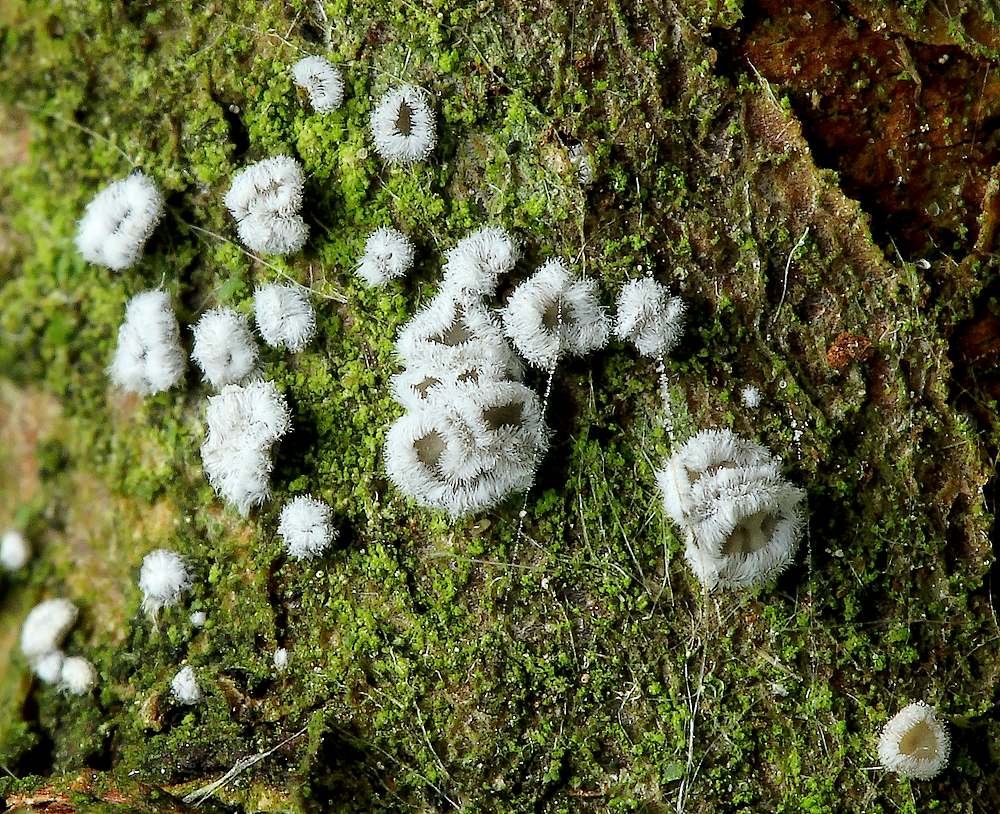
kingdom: Fungi
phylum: Basidiomycota
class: Agaricomycetes
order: Agaricales
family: Niaceae
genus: Lachnella
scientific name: Lachnella alboviolascens
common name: grå frynserede
